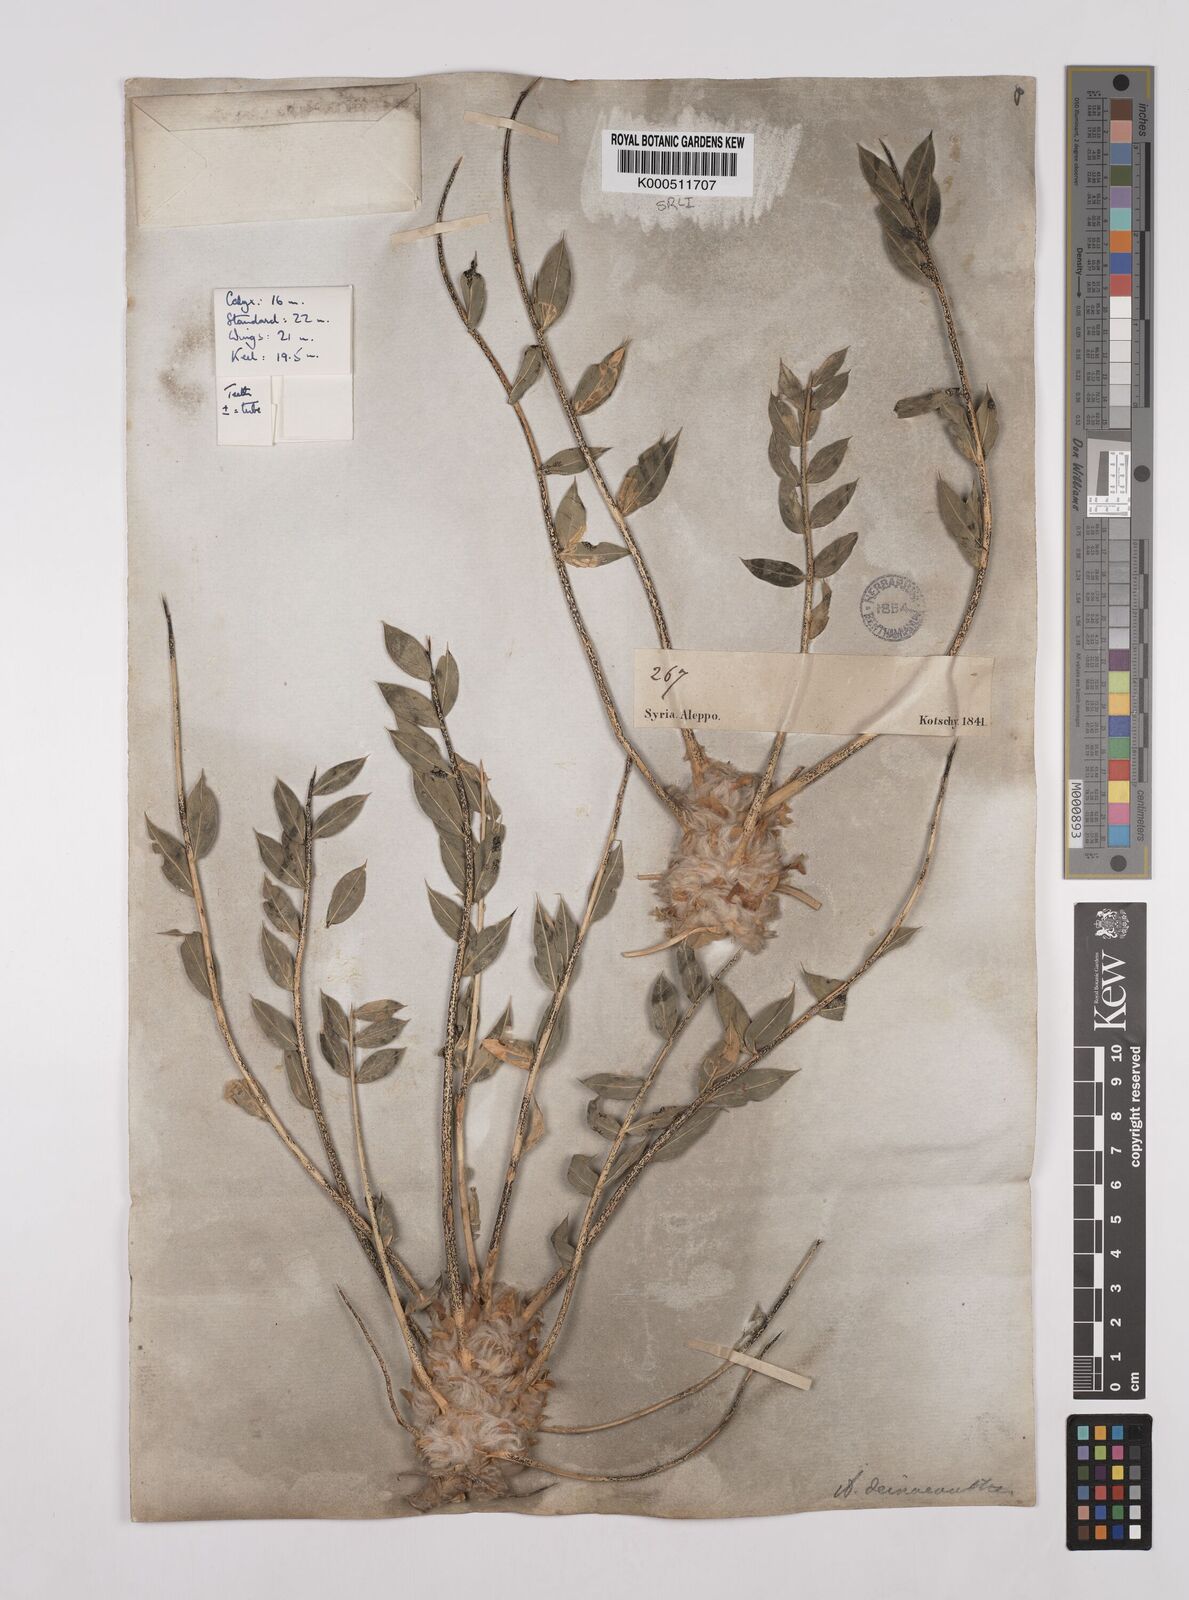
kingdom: Plantae
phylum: Tracheophyta
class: Magnoliopsida
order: Fabales
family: Fabaceae
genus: Astragalus
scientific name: Astragalus oleifolius
